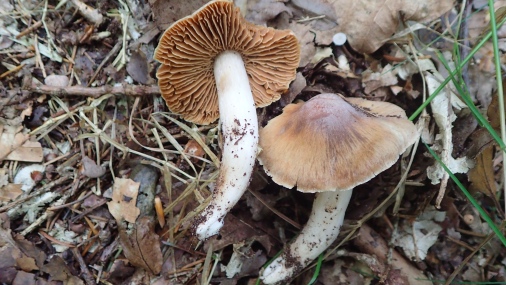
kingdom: Fungi
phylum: Basidiomycota
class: Agaricomycetes
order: Agaricales
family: Cortinariaceae
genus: Cortinarius
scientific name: Cortinarius
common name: jod-slørhat
